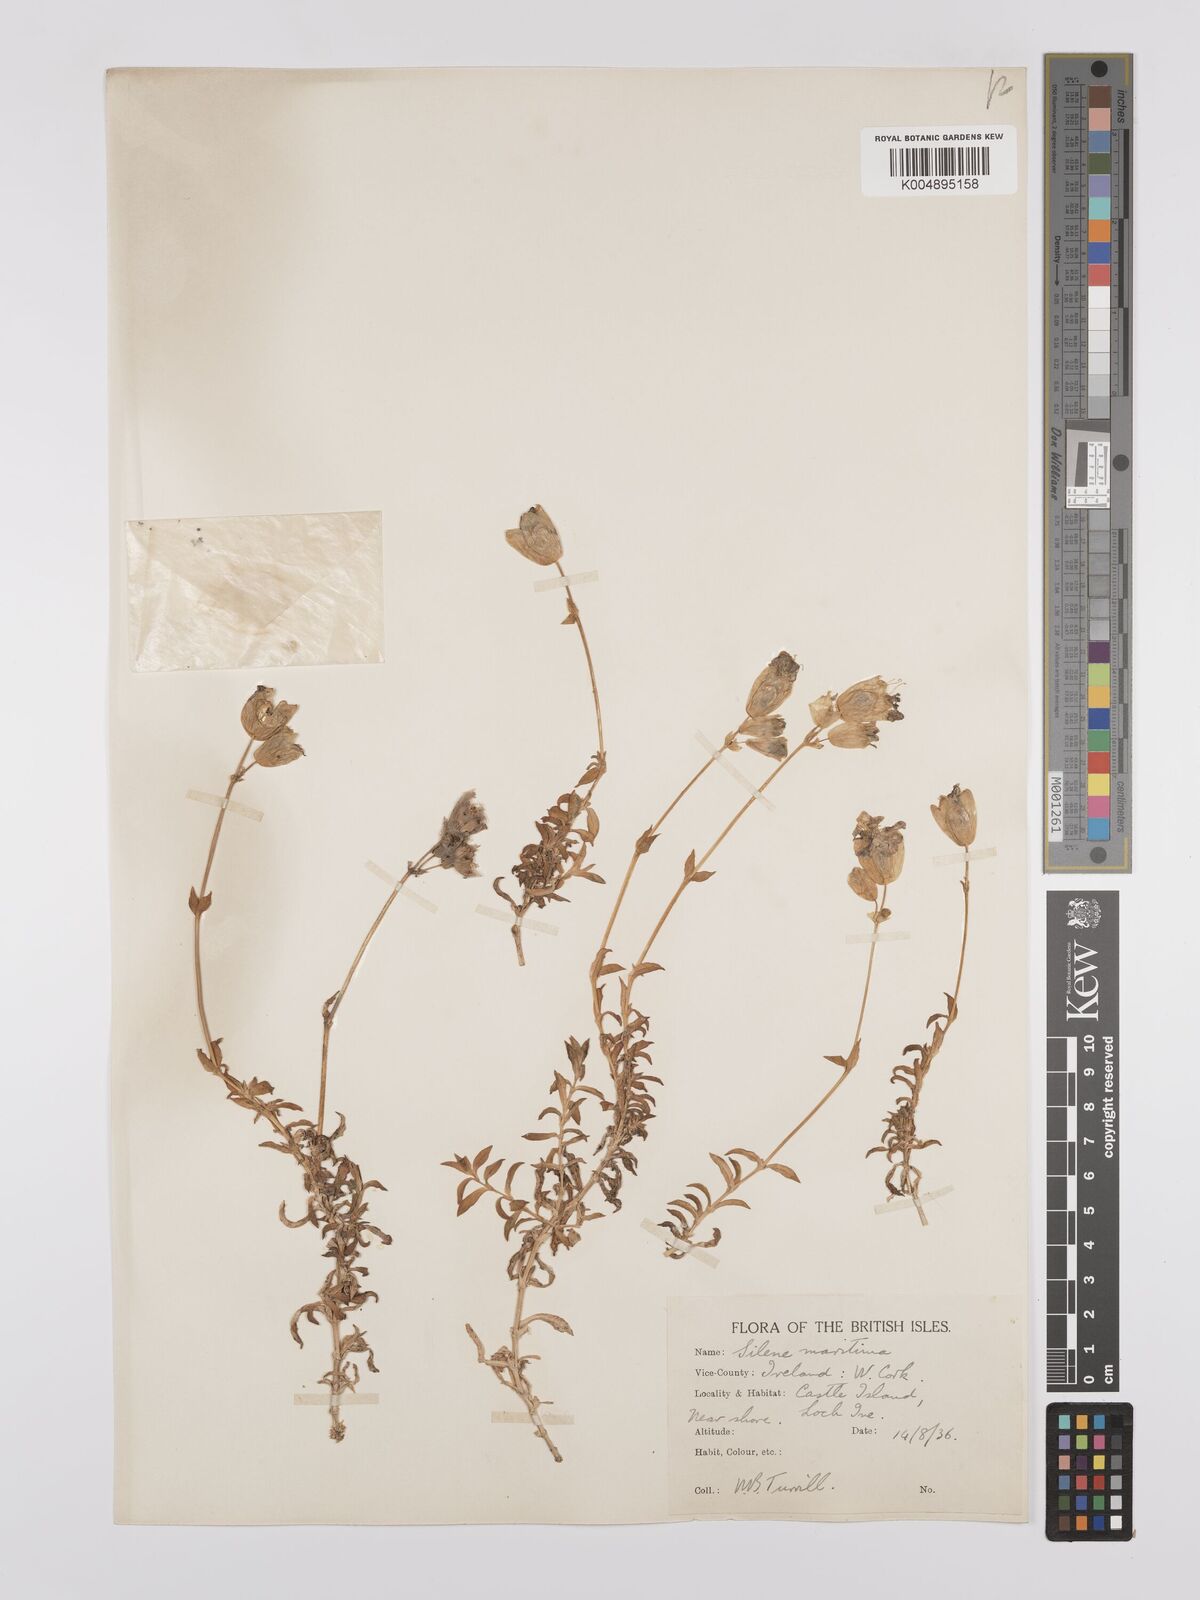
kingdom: Plantae
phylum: Tracheophyta
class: Magnoliopsida
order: Caryophyllales
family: Caryophyllaceae
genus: Silene
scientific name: Silene uniflora
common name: Sea campion
